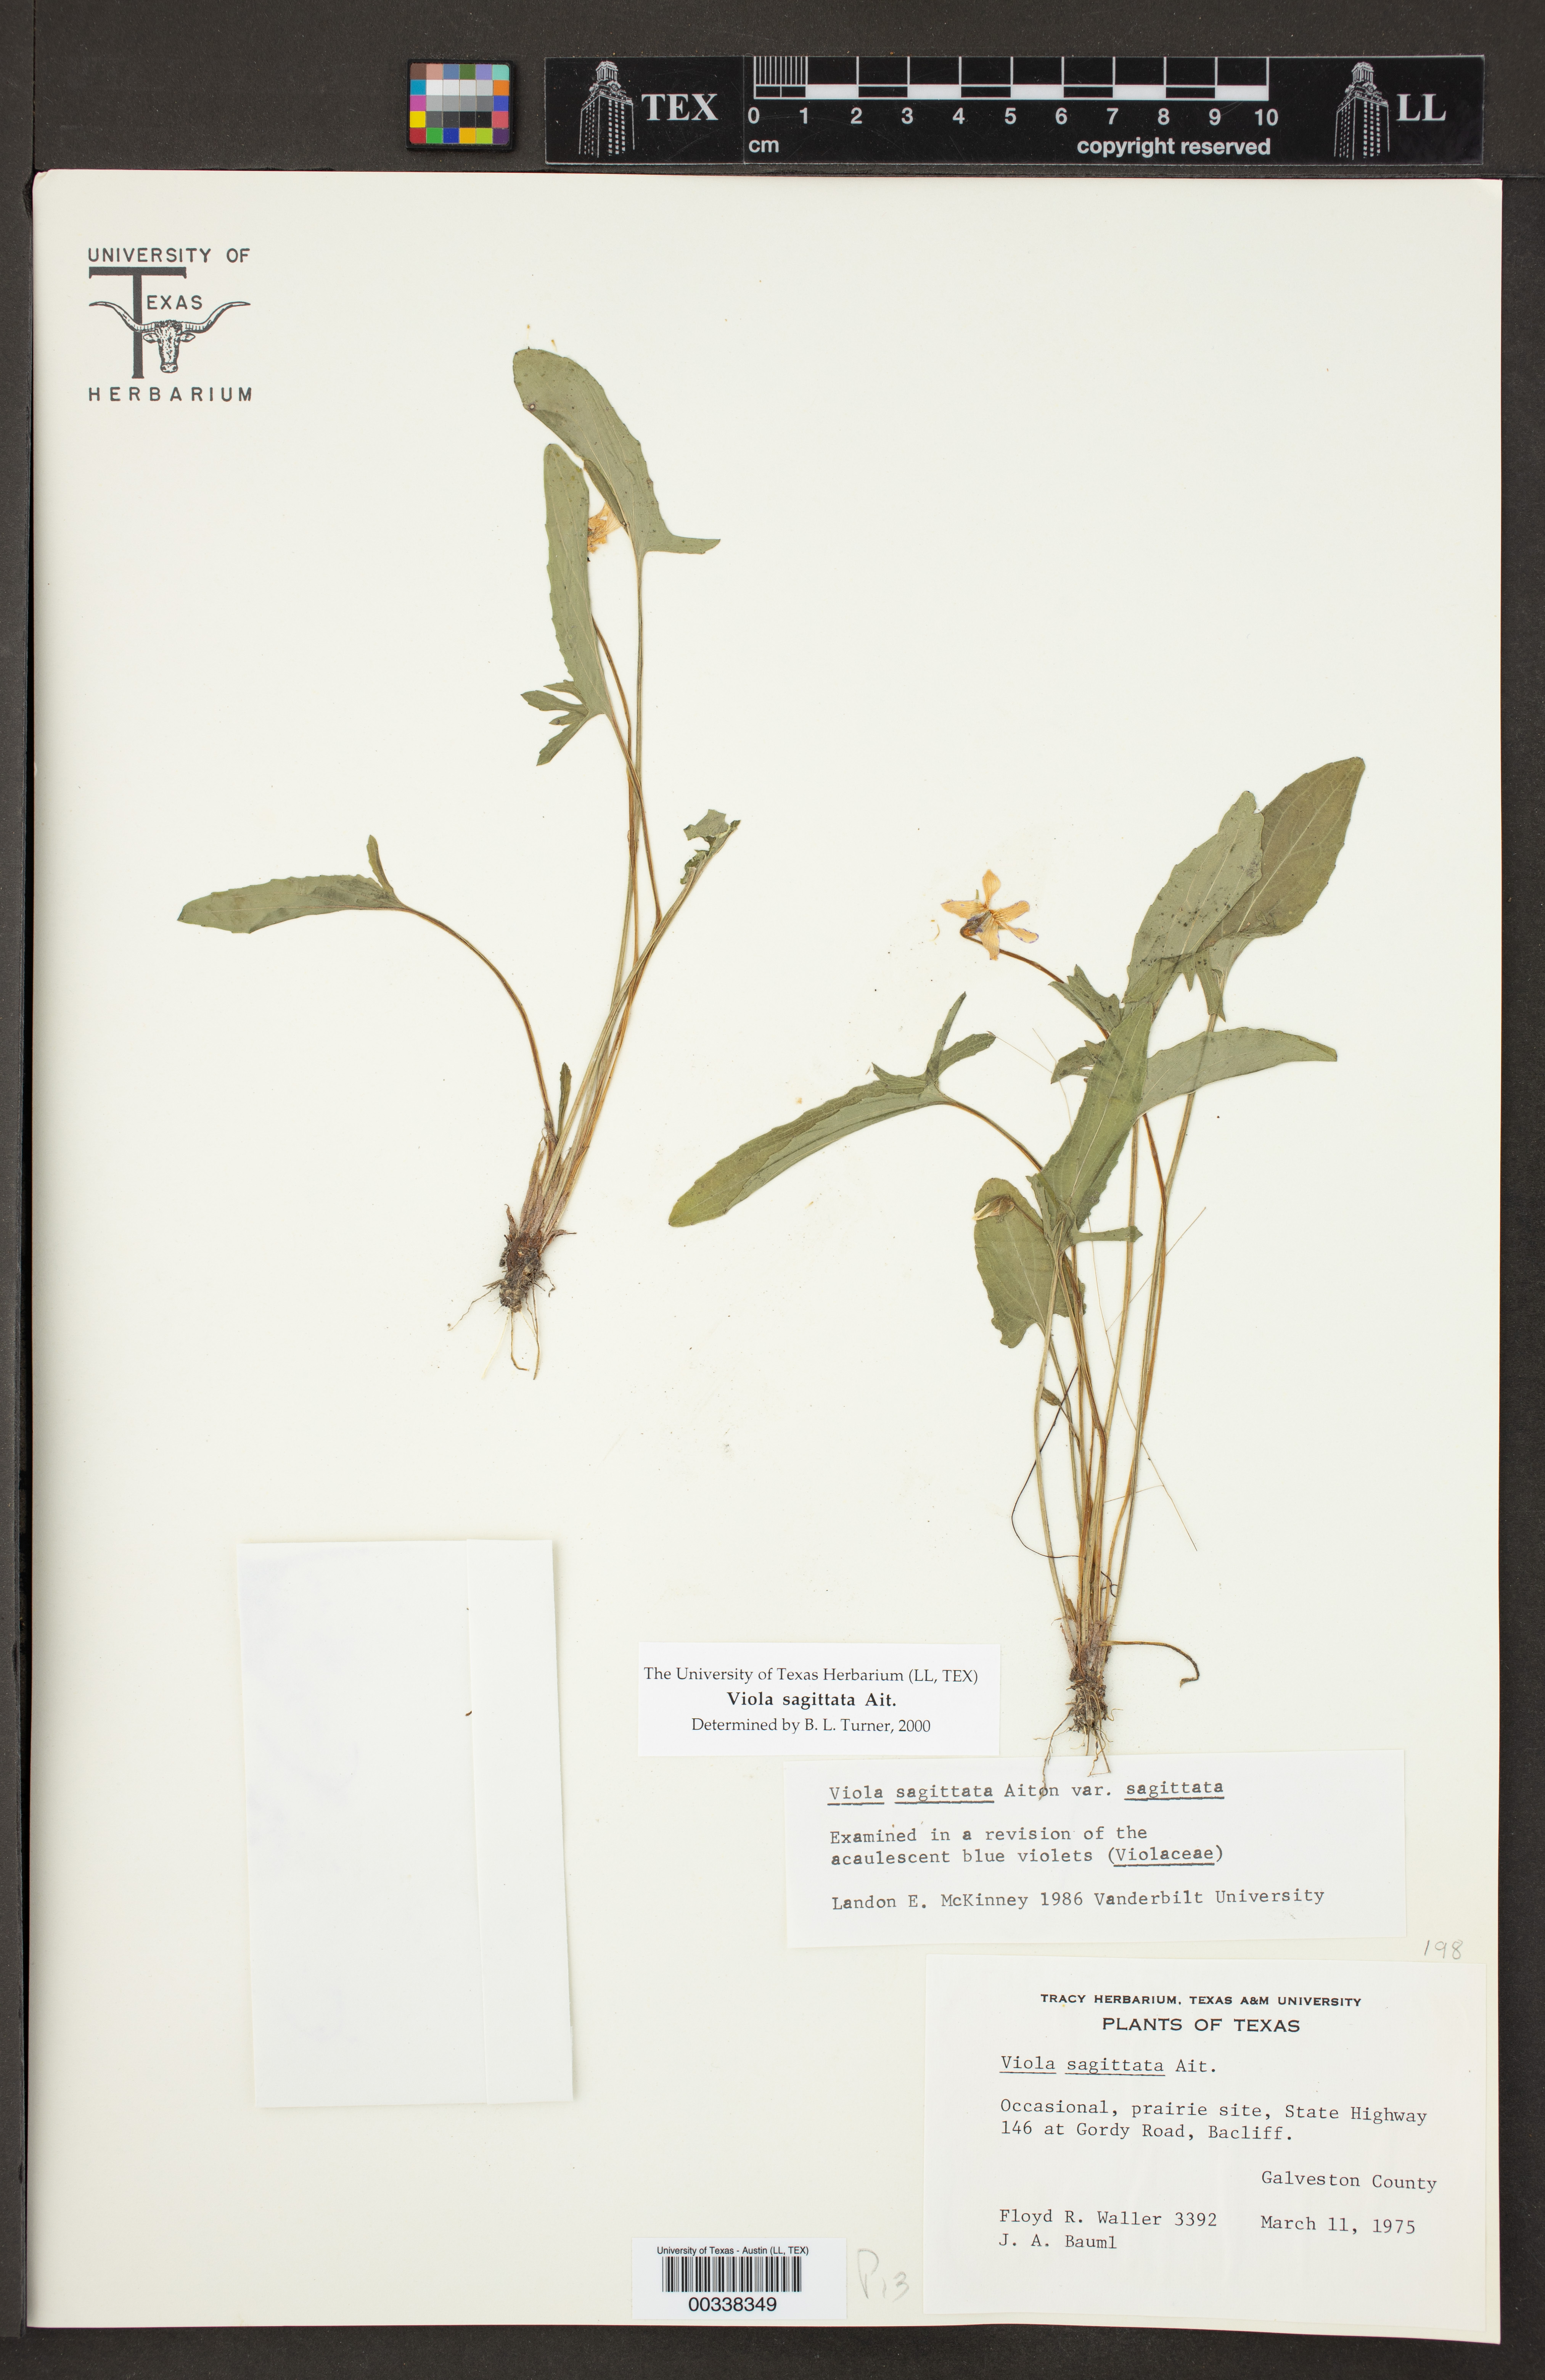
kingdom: Plantae
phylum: Tracheophyta
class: Magnoliopsida
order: Malpighiales
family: Violaceae
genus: Viola
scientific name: Viola sagittata
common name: Arrowhead violet
